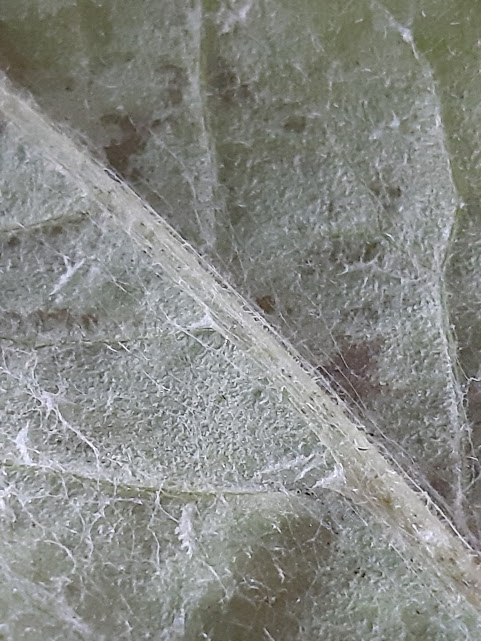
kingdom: Fungi
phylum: Ascomycota
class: Leotiomycetes
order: Helotiales
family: Erysiphaceae
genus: Golovinomyces
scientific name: Golovinomyces cichoracearum
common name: kurvblomst-meldug
